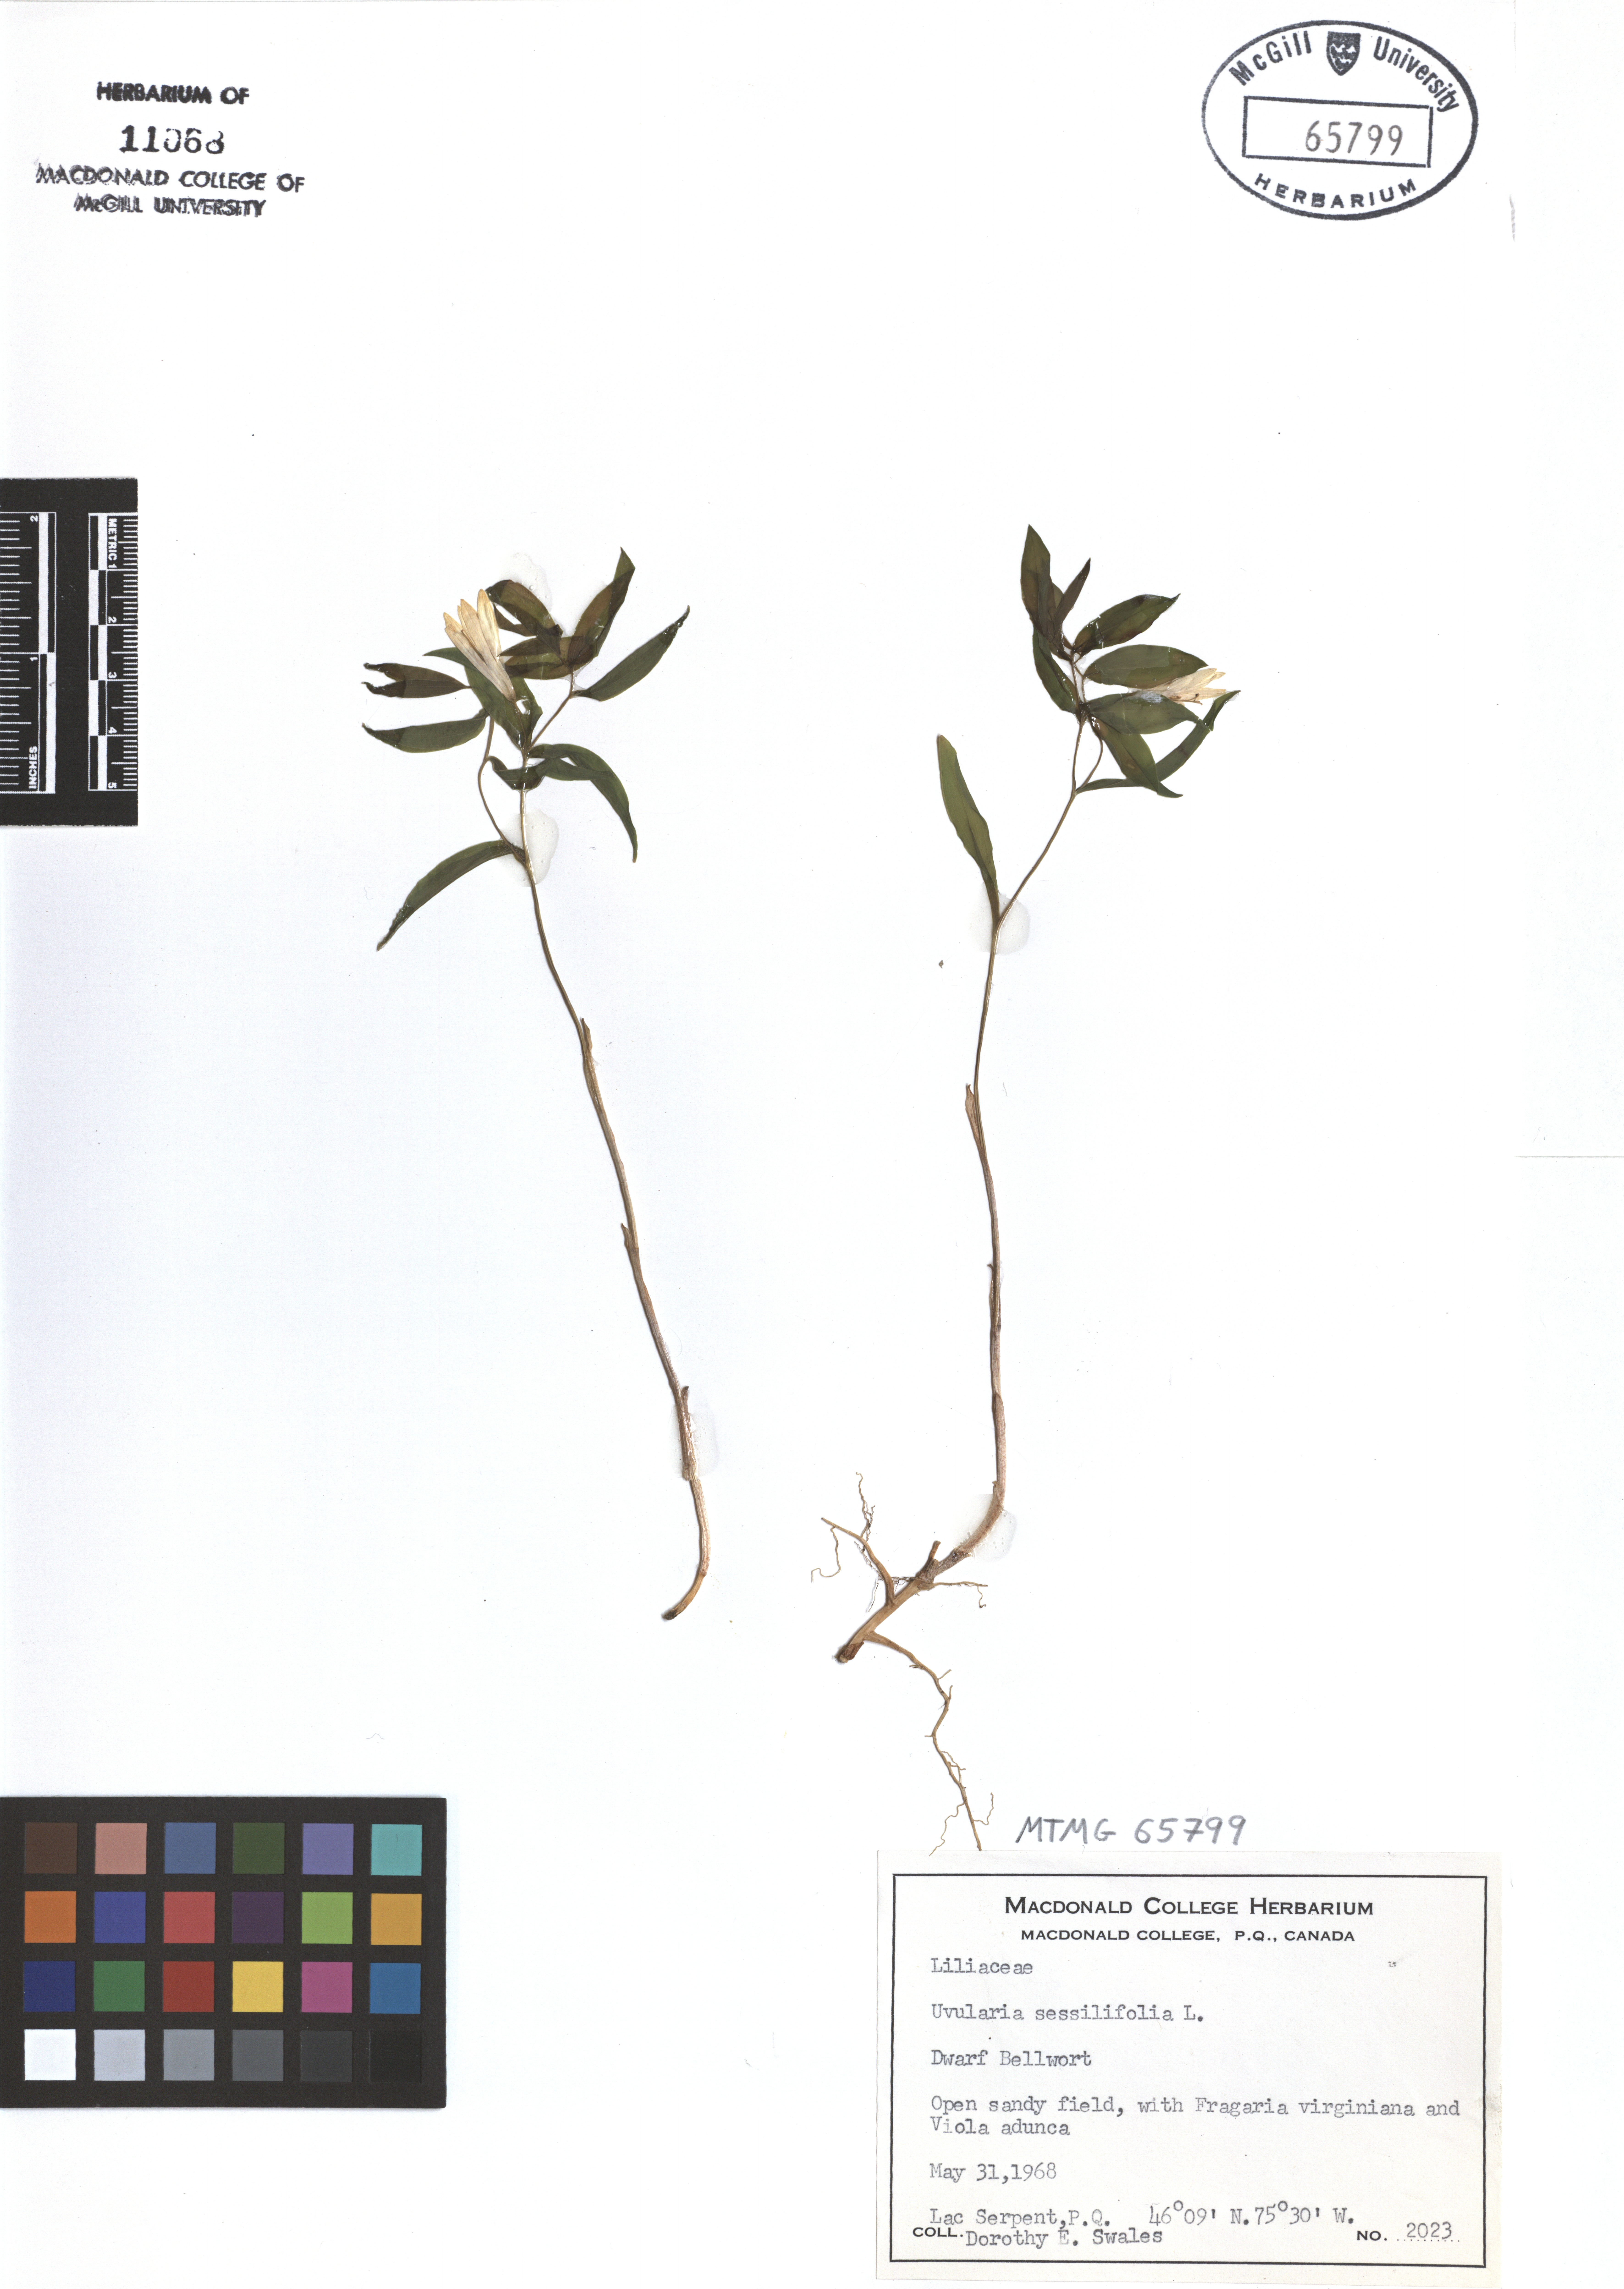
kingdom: Plantae
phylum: Tracheophyta
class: Liliopsida
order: Liliales
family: Colchicaceae
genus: Uvularia
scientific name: Uvularia sessilifolia
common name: Straw-lily
